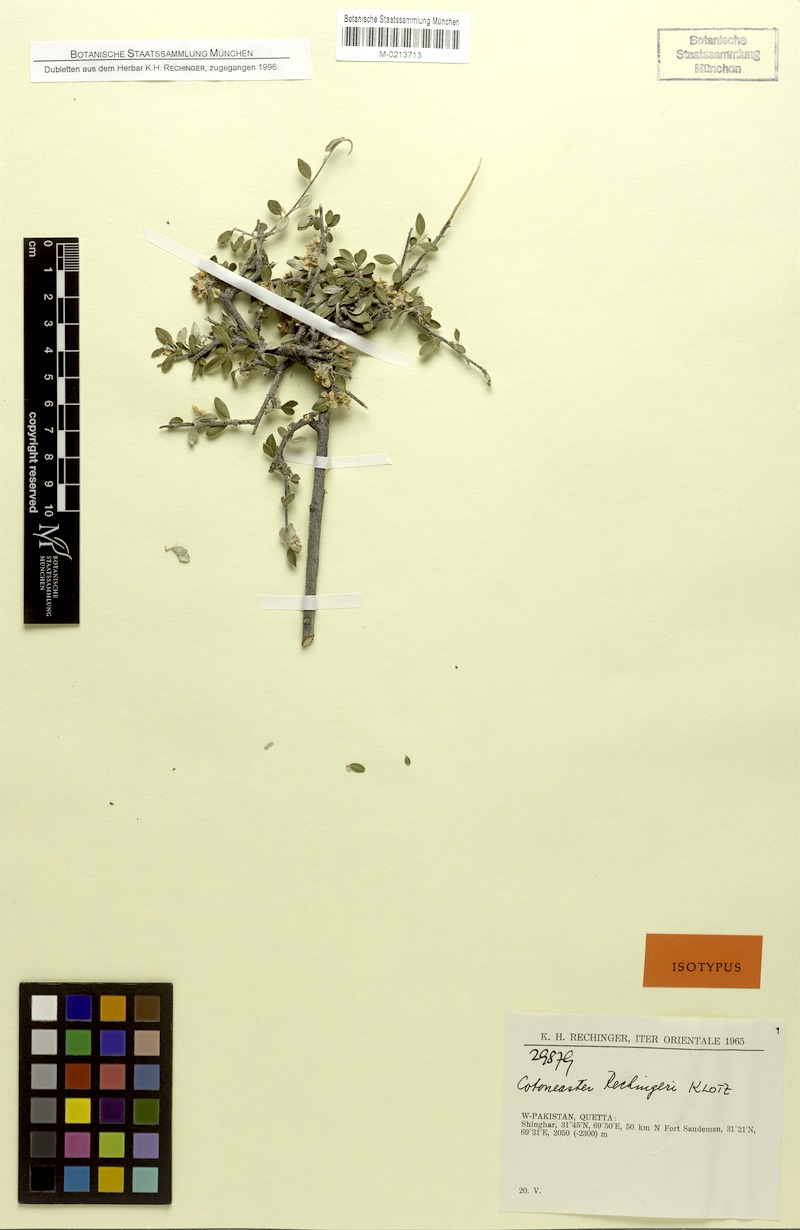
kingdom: Plantae
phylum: Tracheophyta
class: Magnoliopsida
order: Rosales
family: Rosaceae
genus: Cotoneaster
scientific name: Cotoneaster racemiflorus
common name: Cluster-flower cotoneaster
